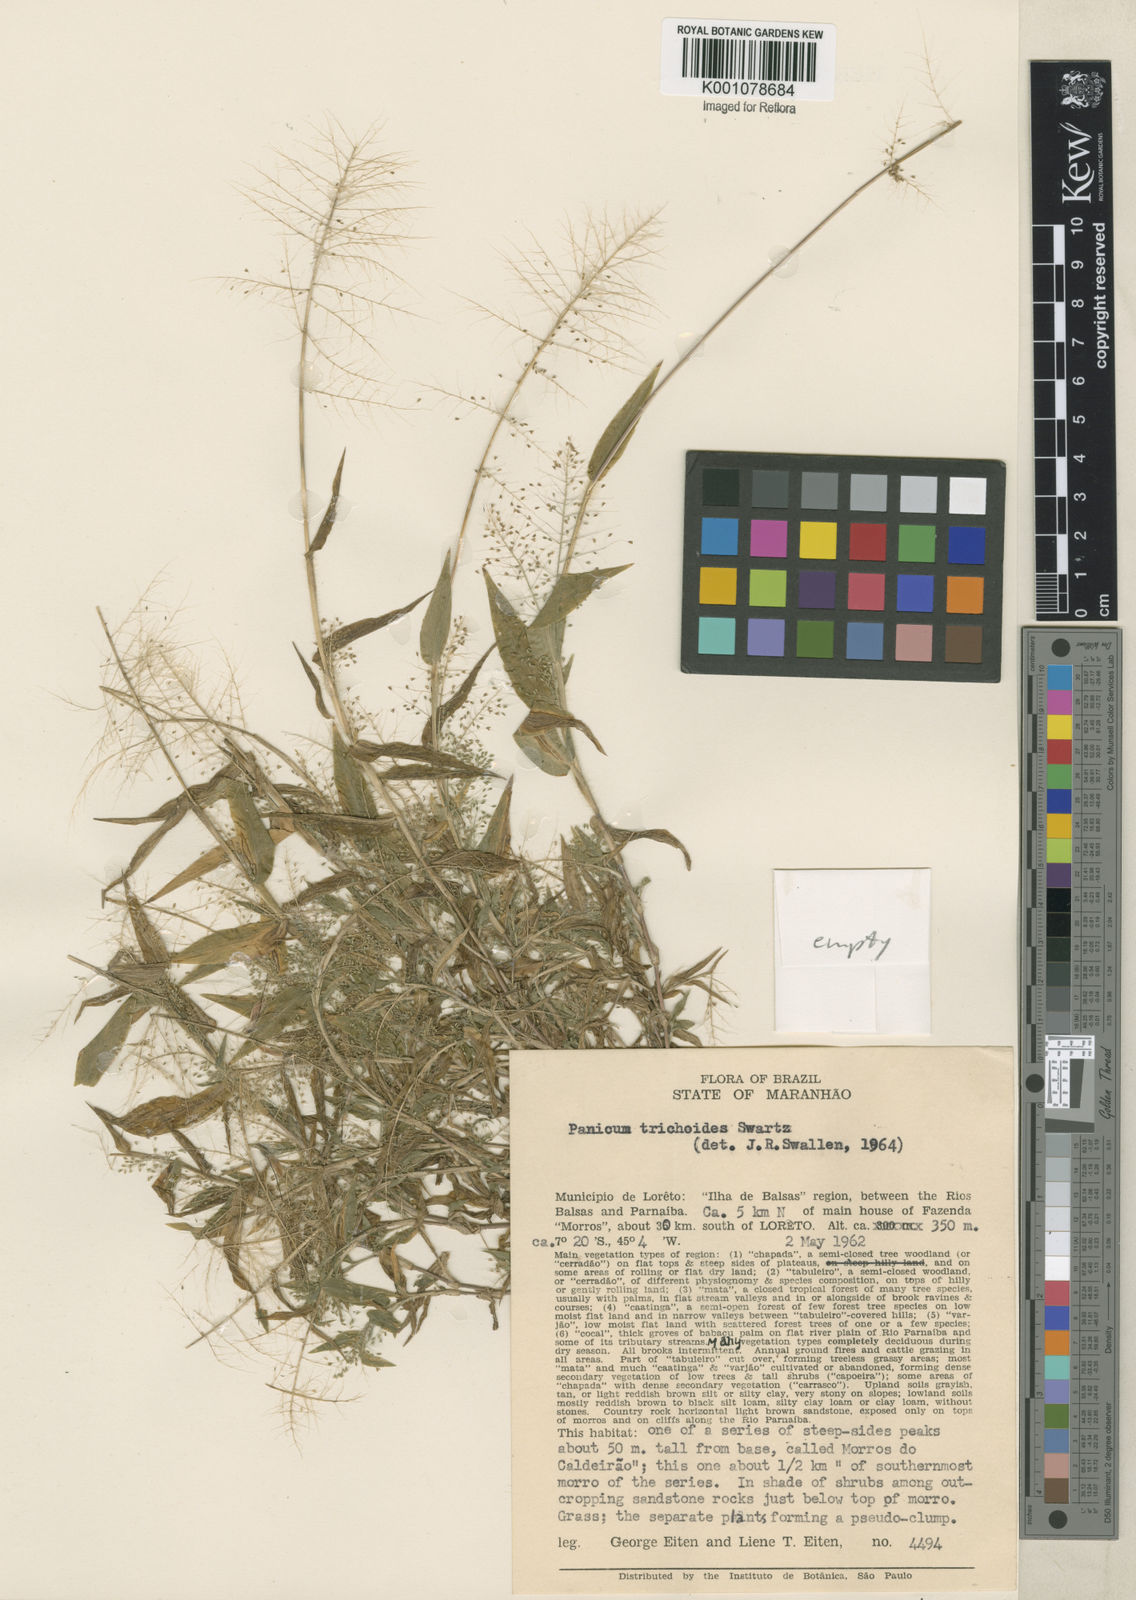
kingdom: Plantae
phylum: Tracheophyta
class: Liliopsida
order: Poales
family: Poaceae
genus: Panicum
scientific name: Panicum trichoides
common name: Tickle grass
